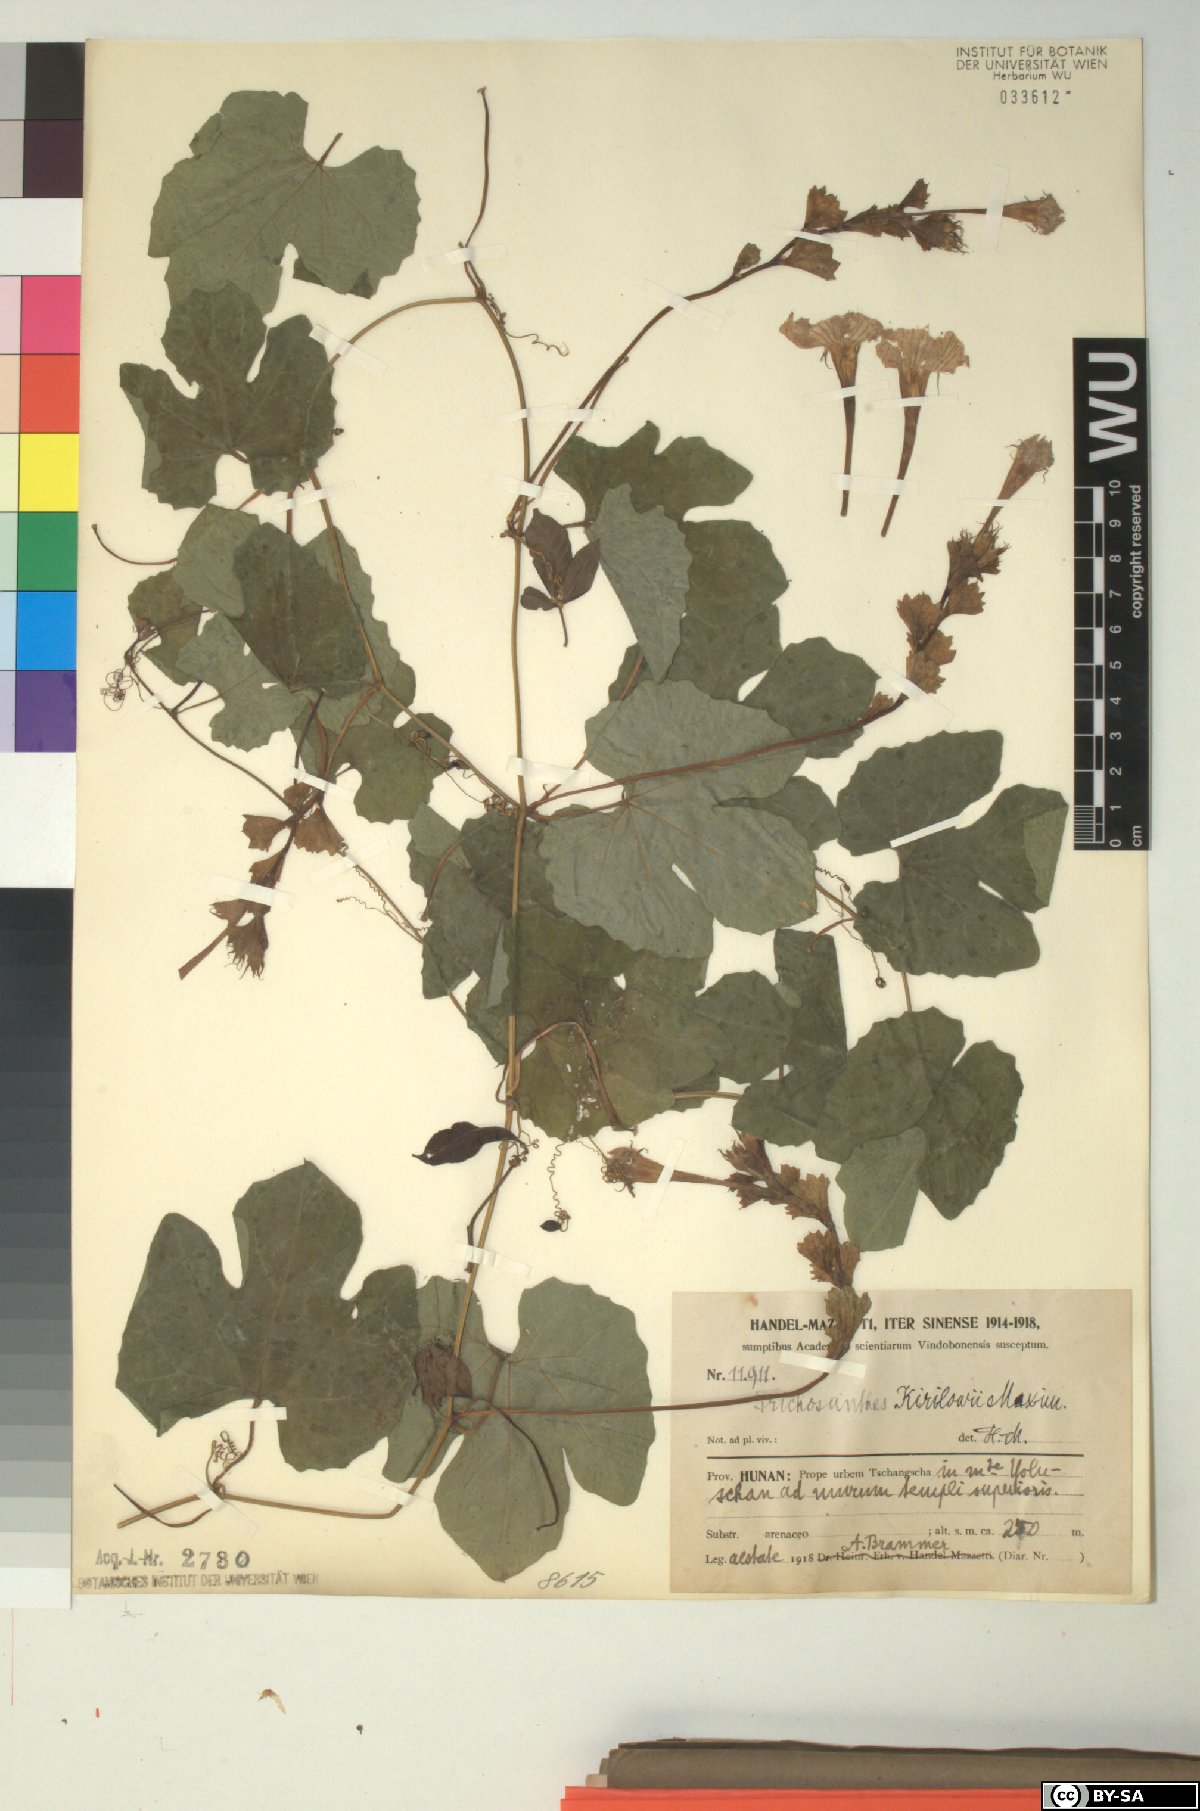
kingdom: Plantae
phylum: Tracheophyta
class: Magnoliopsida
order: Cucurbitales
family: Cucurbitaceae
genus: Trichosanthes
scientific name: Trichosanthes kirilowii
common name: Chinese-cucumber
